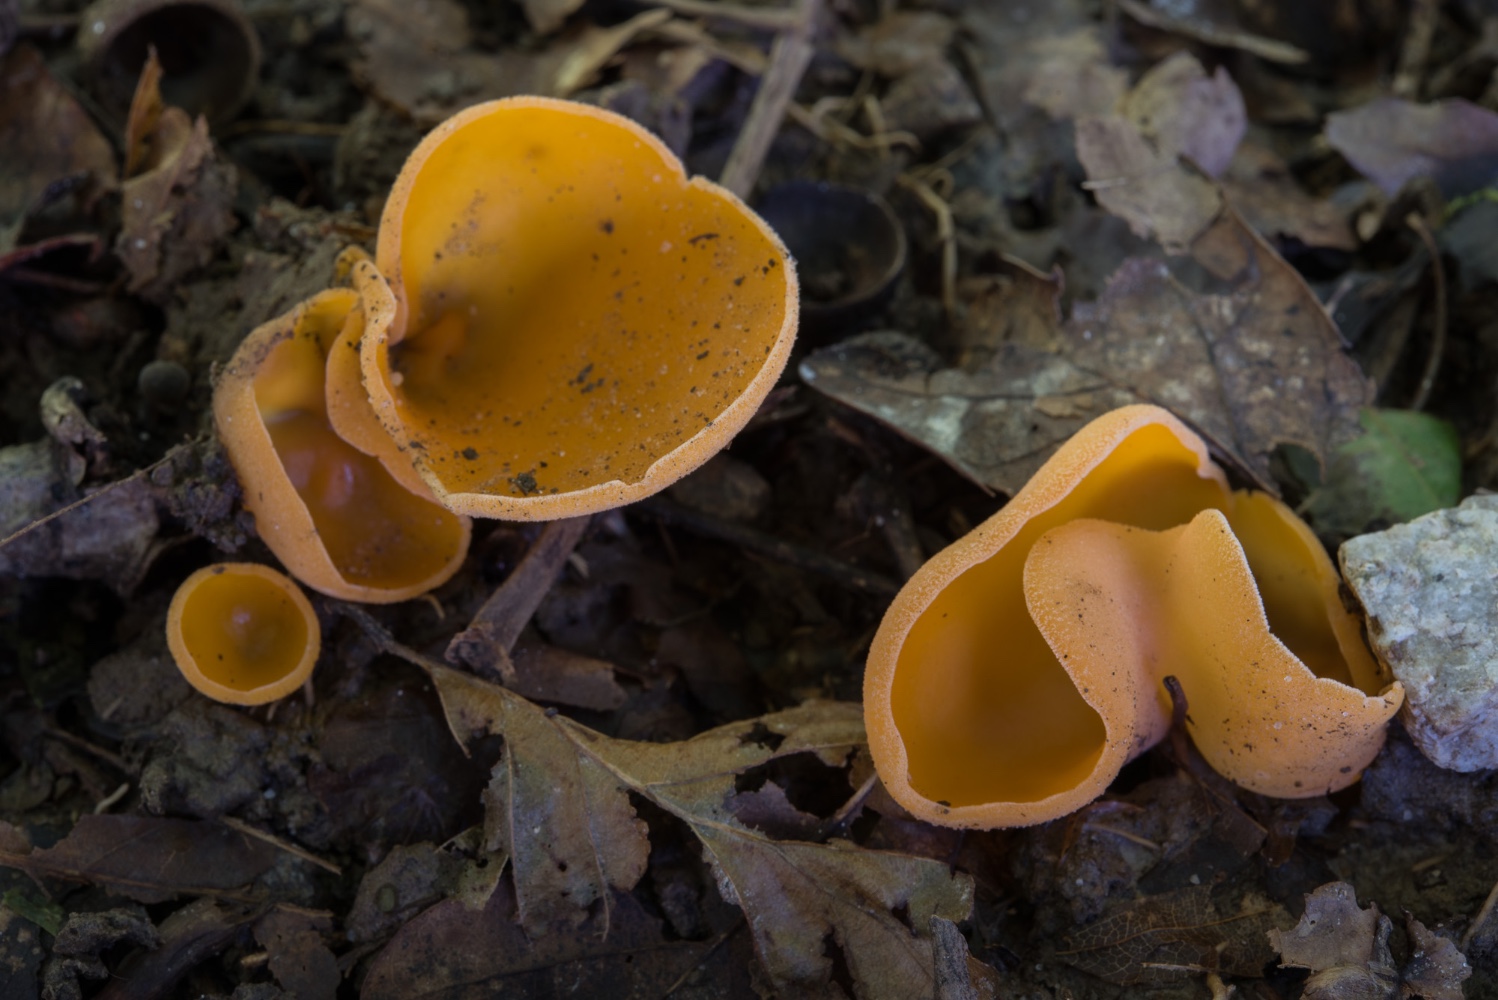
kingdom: Fungi
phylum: Ascomycota
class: Pezizomycetes
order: Pezizales
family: Pyronemataceae
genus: Aleuria
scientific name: Aleuria aurantia
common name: almindelig orangebæger
